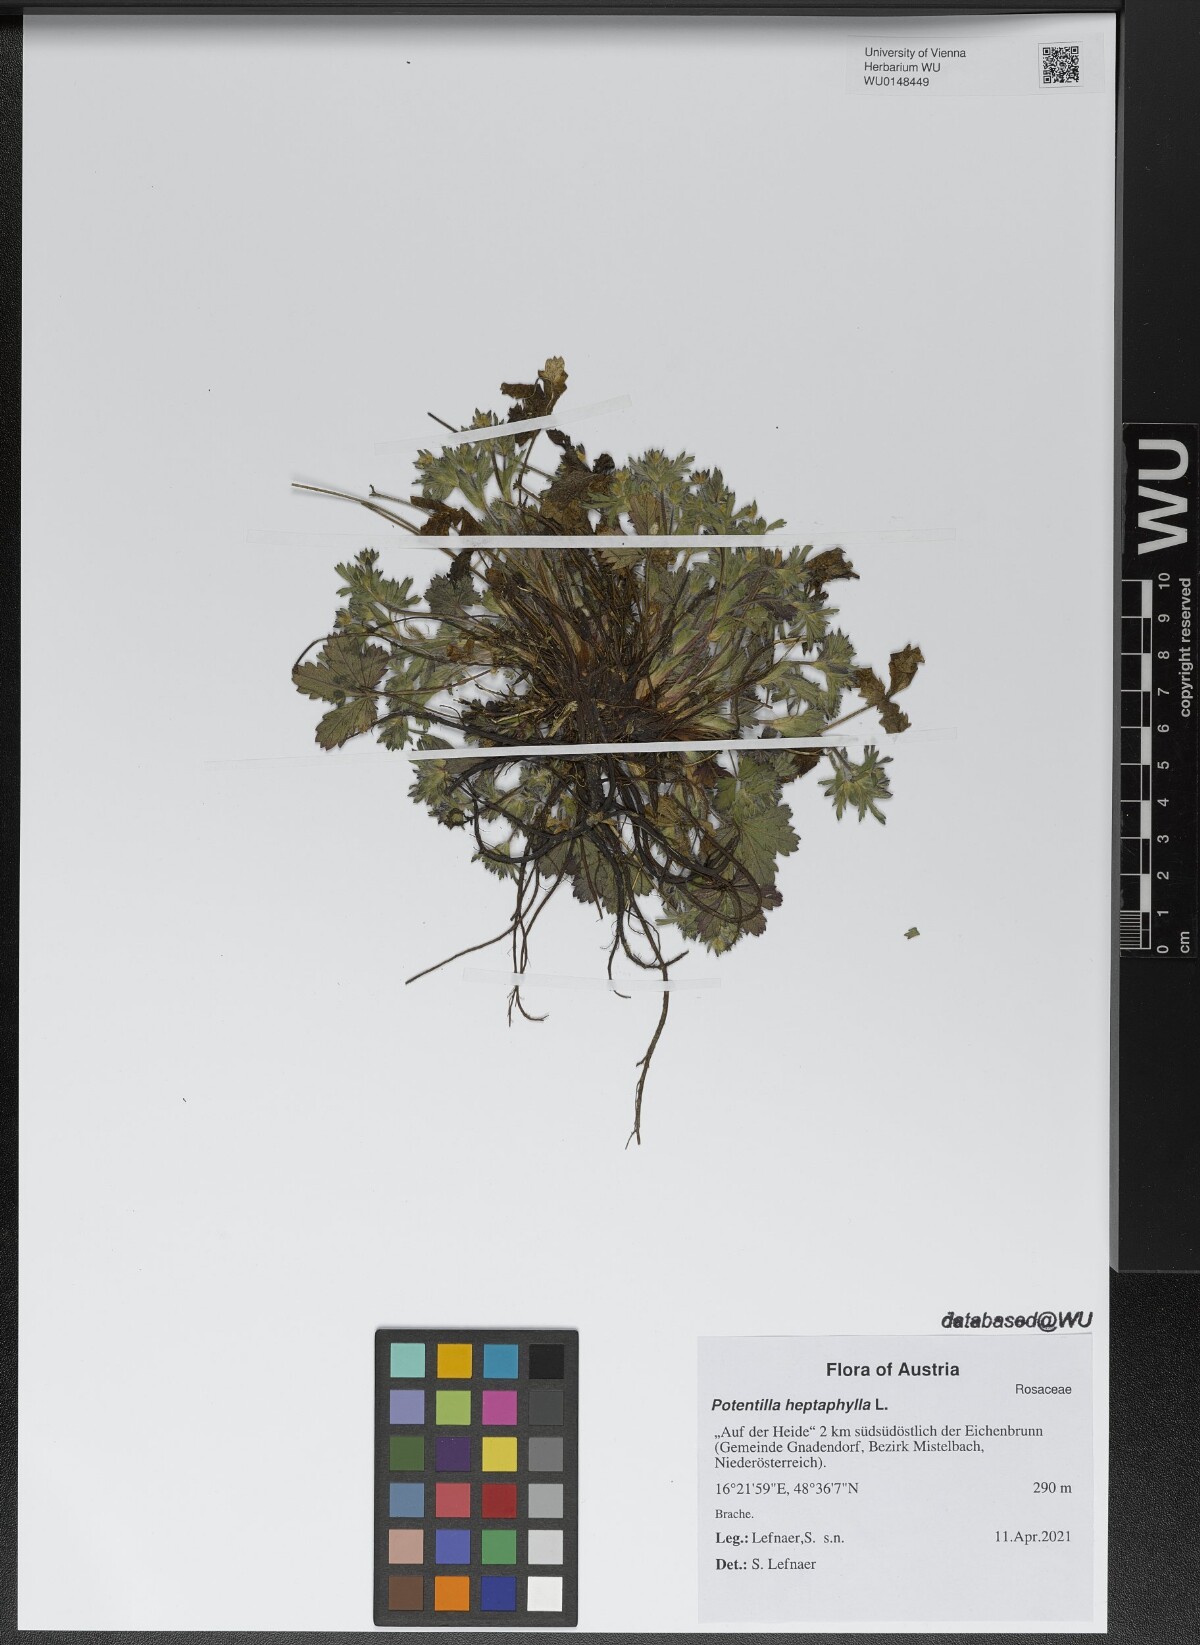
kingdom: Plantae
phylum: Tracheophyta
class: Magnoliopsida
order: Rosales
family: Rosaceae
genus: Potentilla
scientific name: Potentilla heptaphylla
